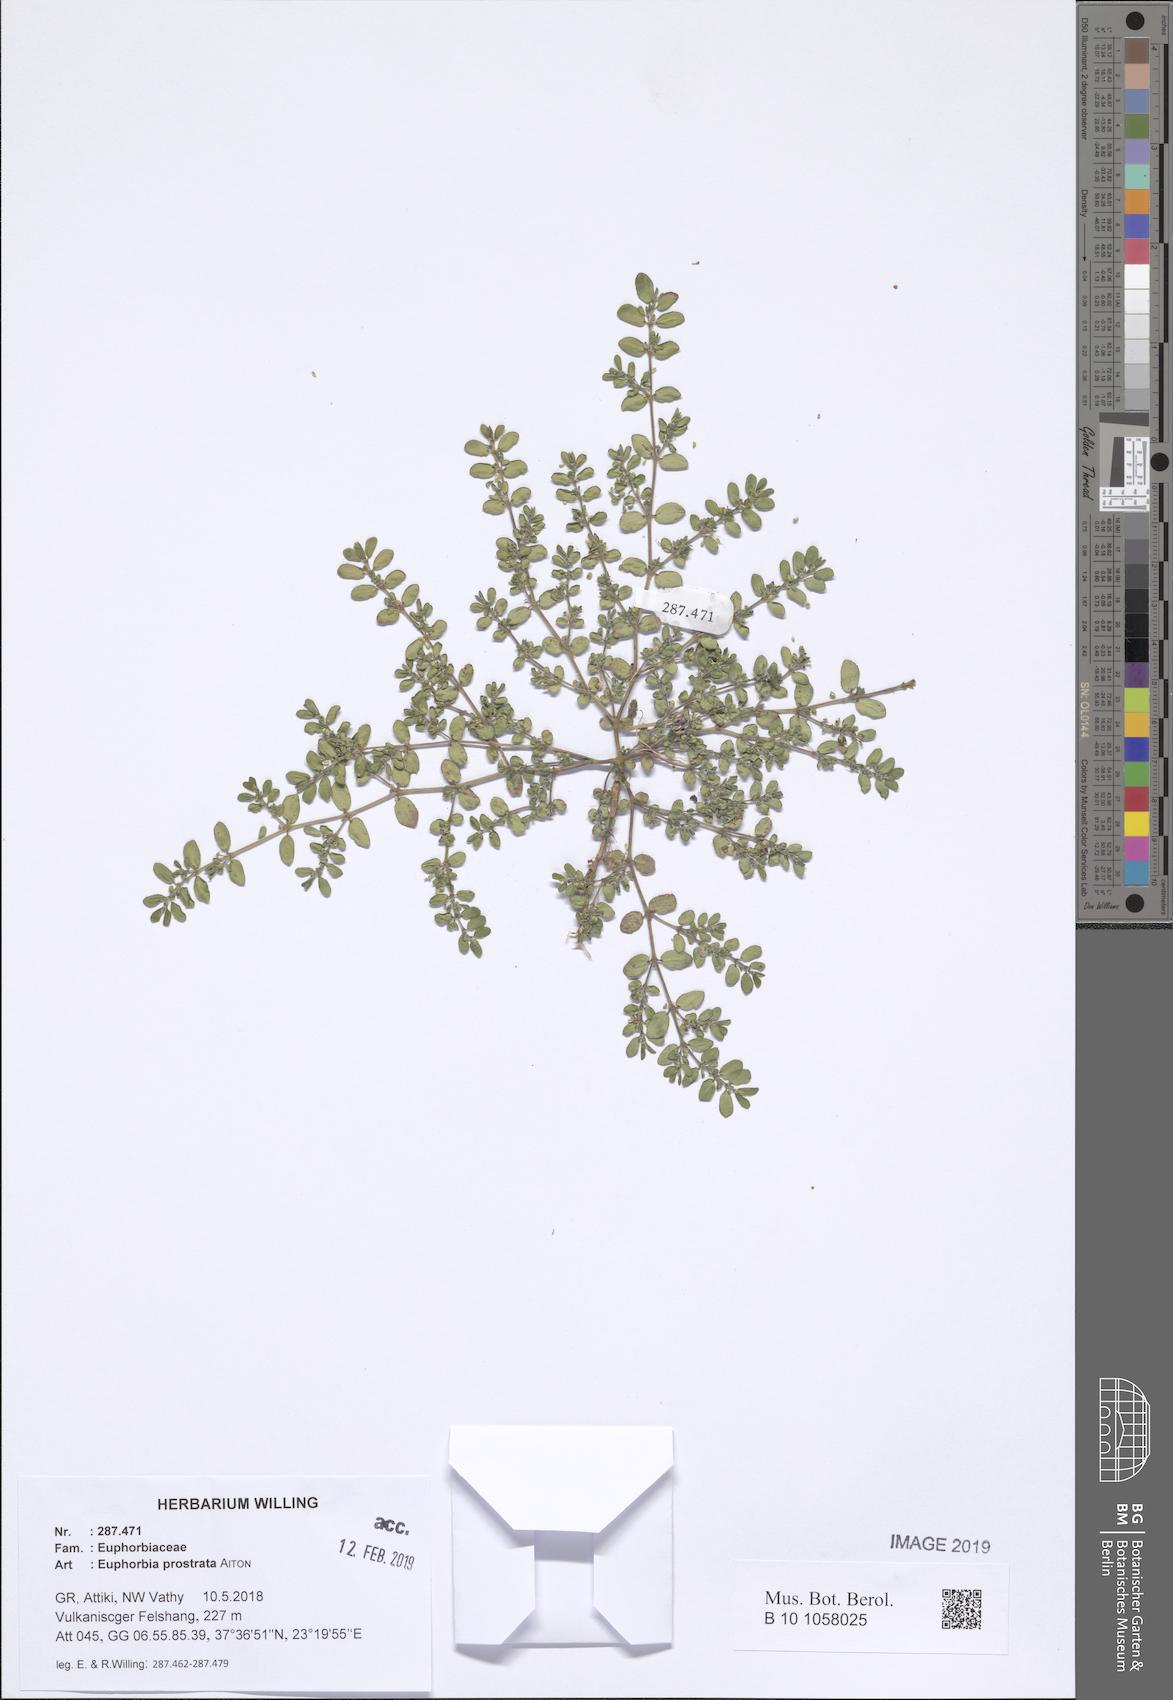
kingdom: Plantae
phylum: Tracheophyta
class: Magnoliopsida
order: Malpighiales
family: Euphorbiaceae
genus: Euphorbia
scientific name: Euphorbia prostrata
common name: Prostrate sandmat
